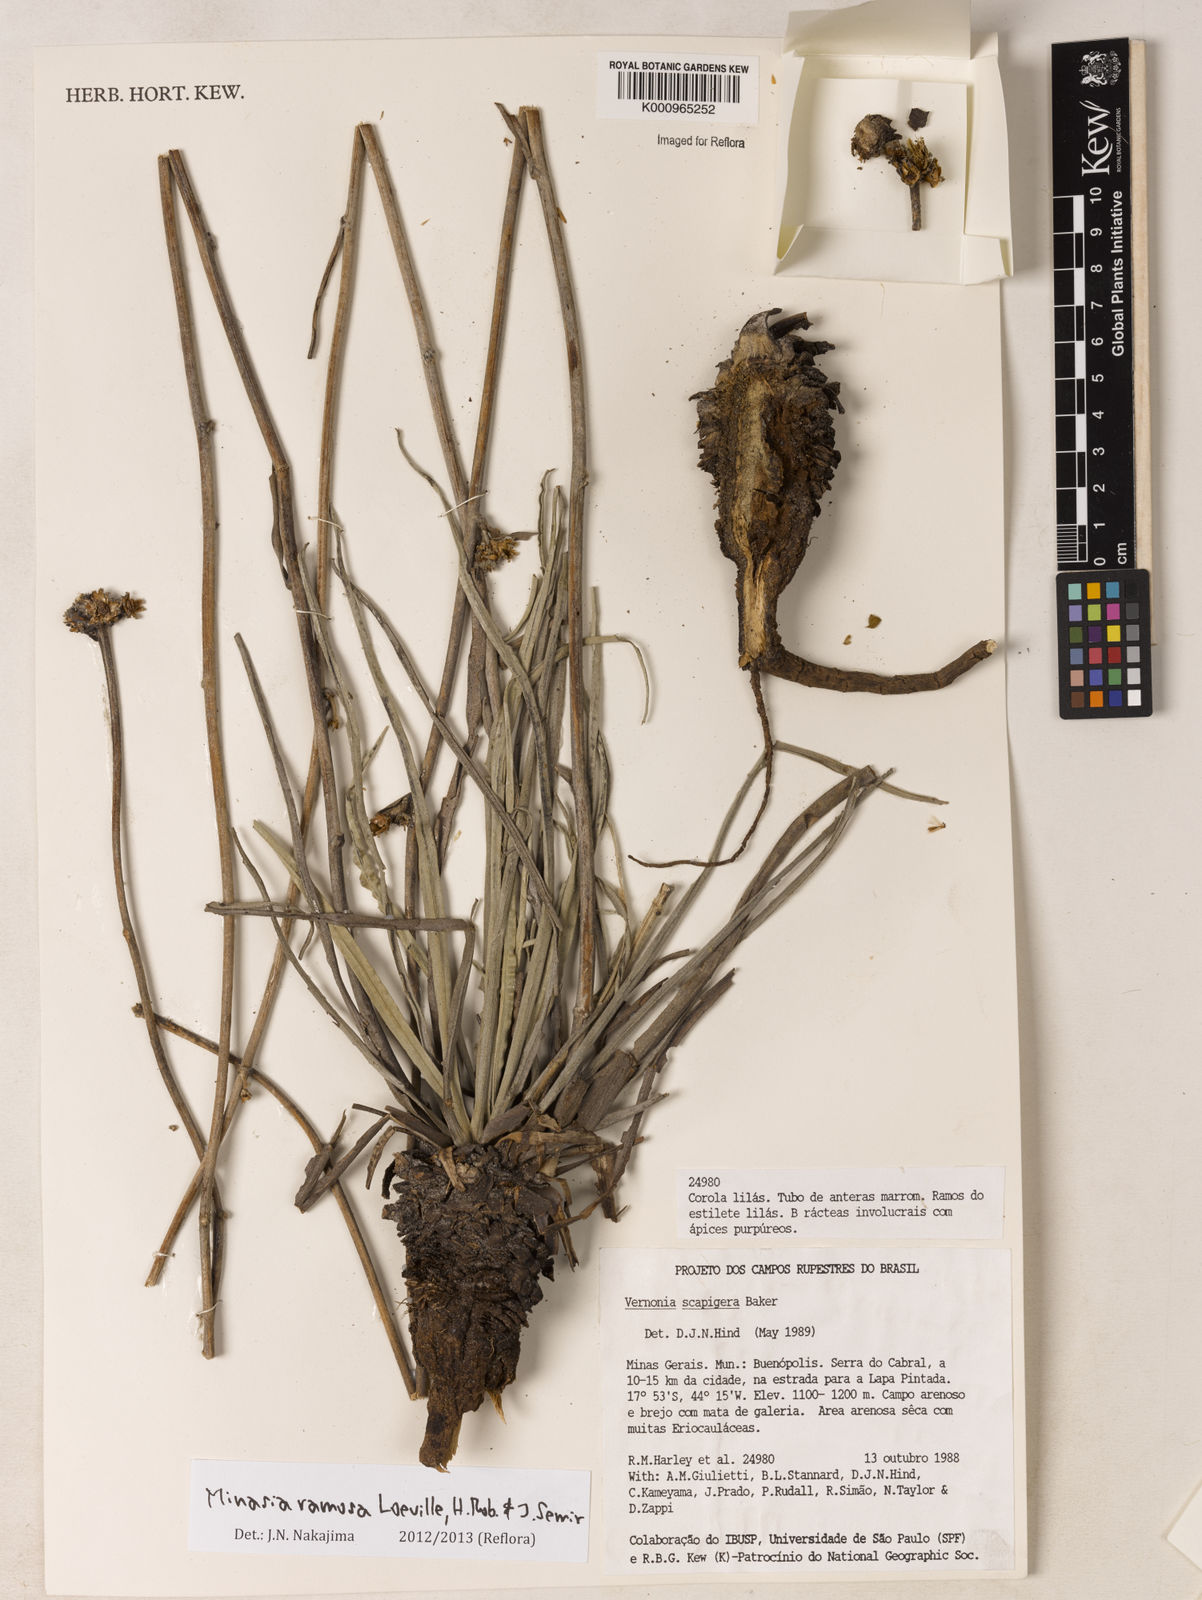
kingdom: Plantae
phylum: Tracheophyta
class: Magnoliopsida
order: Asterales
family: Asteraceae
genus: Minasia
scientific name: Minasia ramosa
